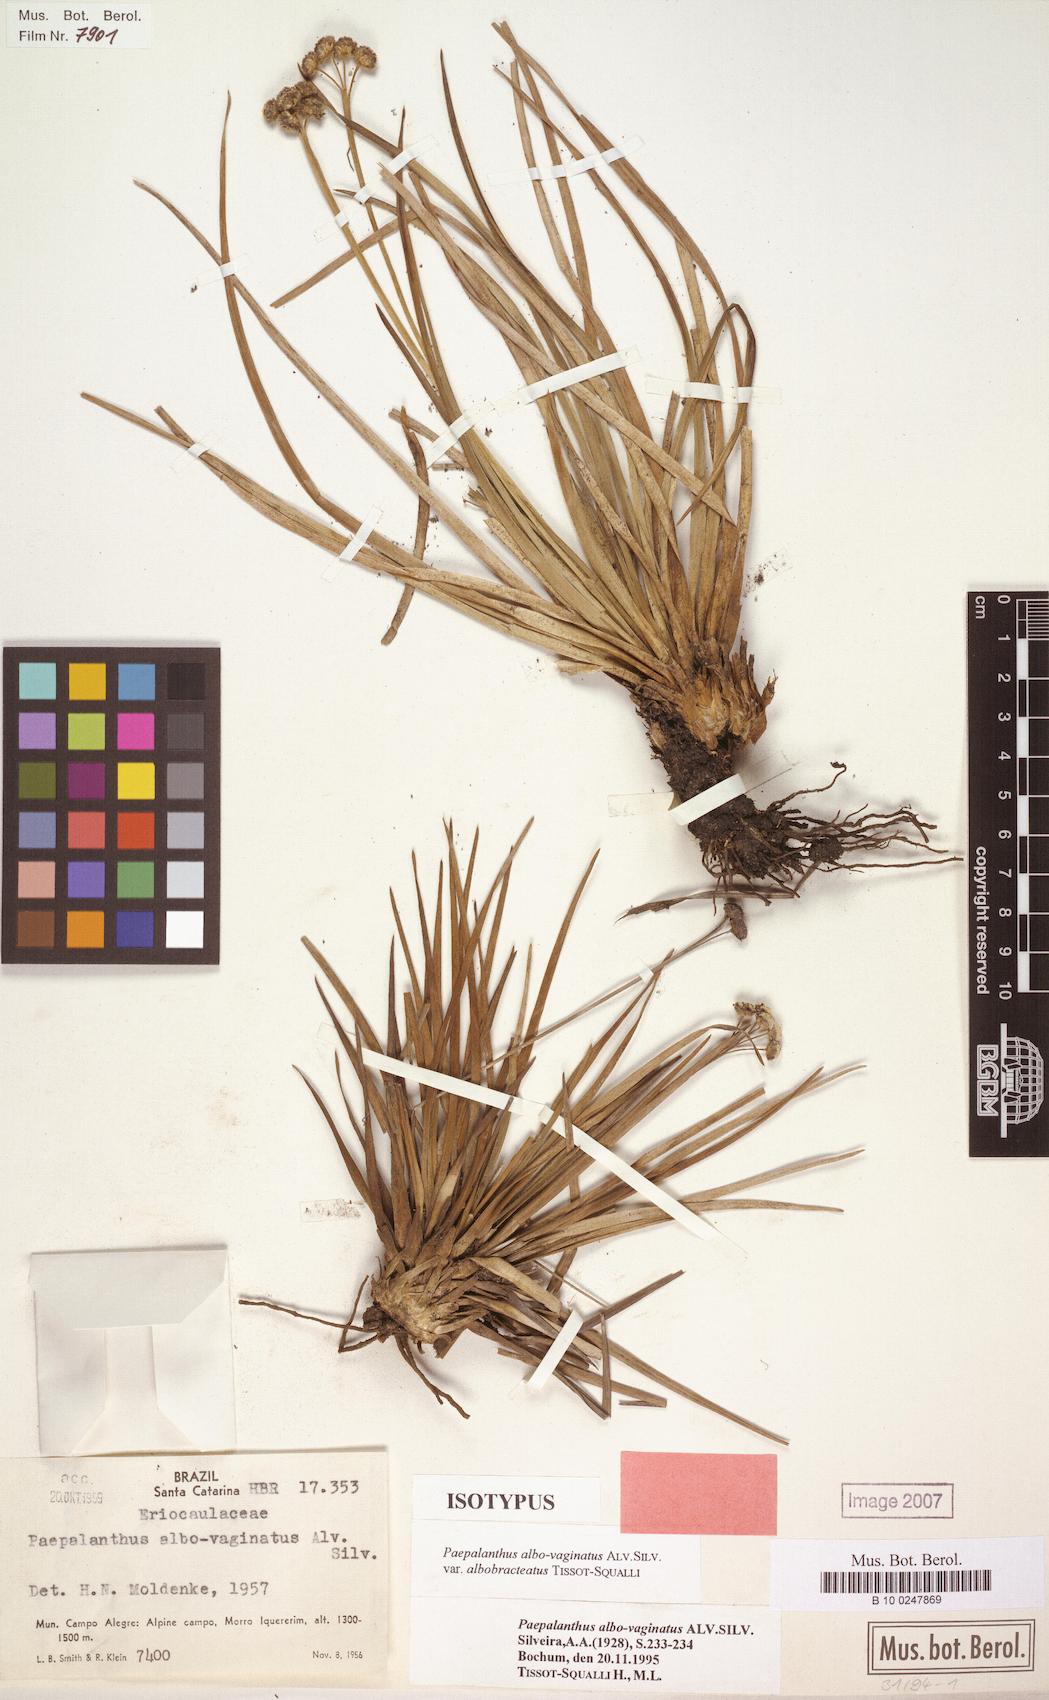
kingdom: Plantae
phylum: Tracheophyta
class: Liliopsida
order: Poales
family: Eriocaulaceae
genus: Paepalanthus
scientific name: Paepalanthus albovaginatus
